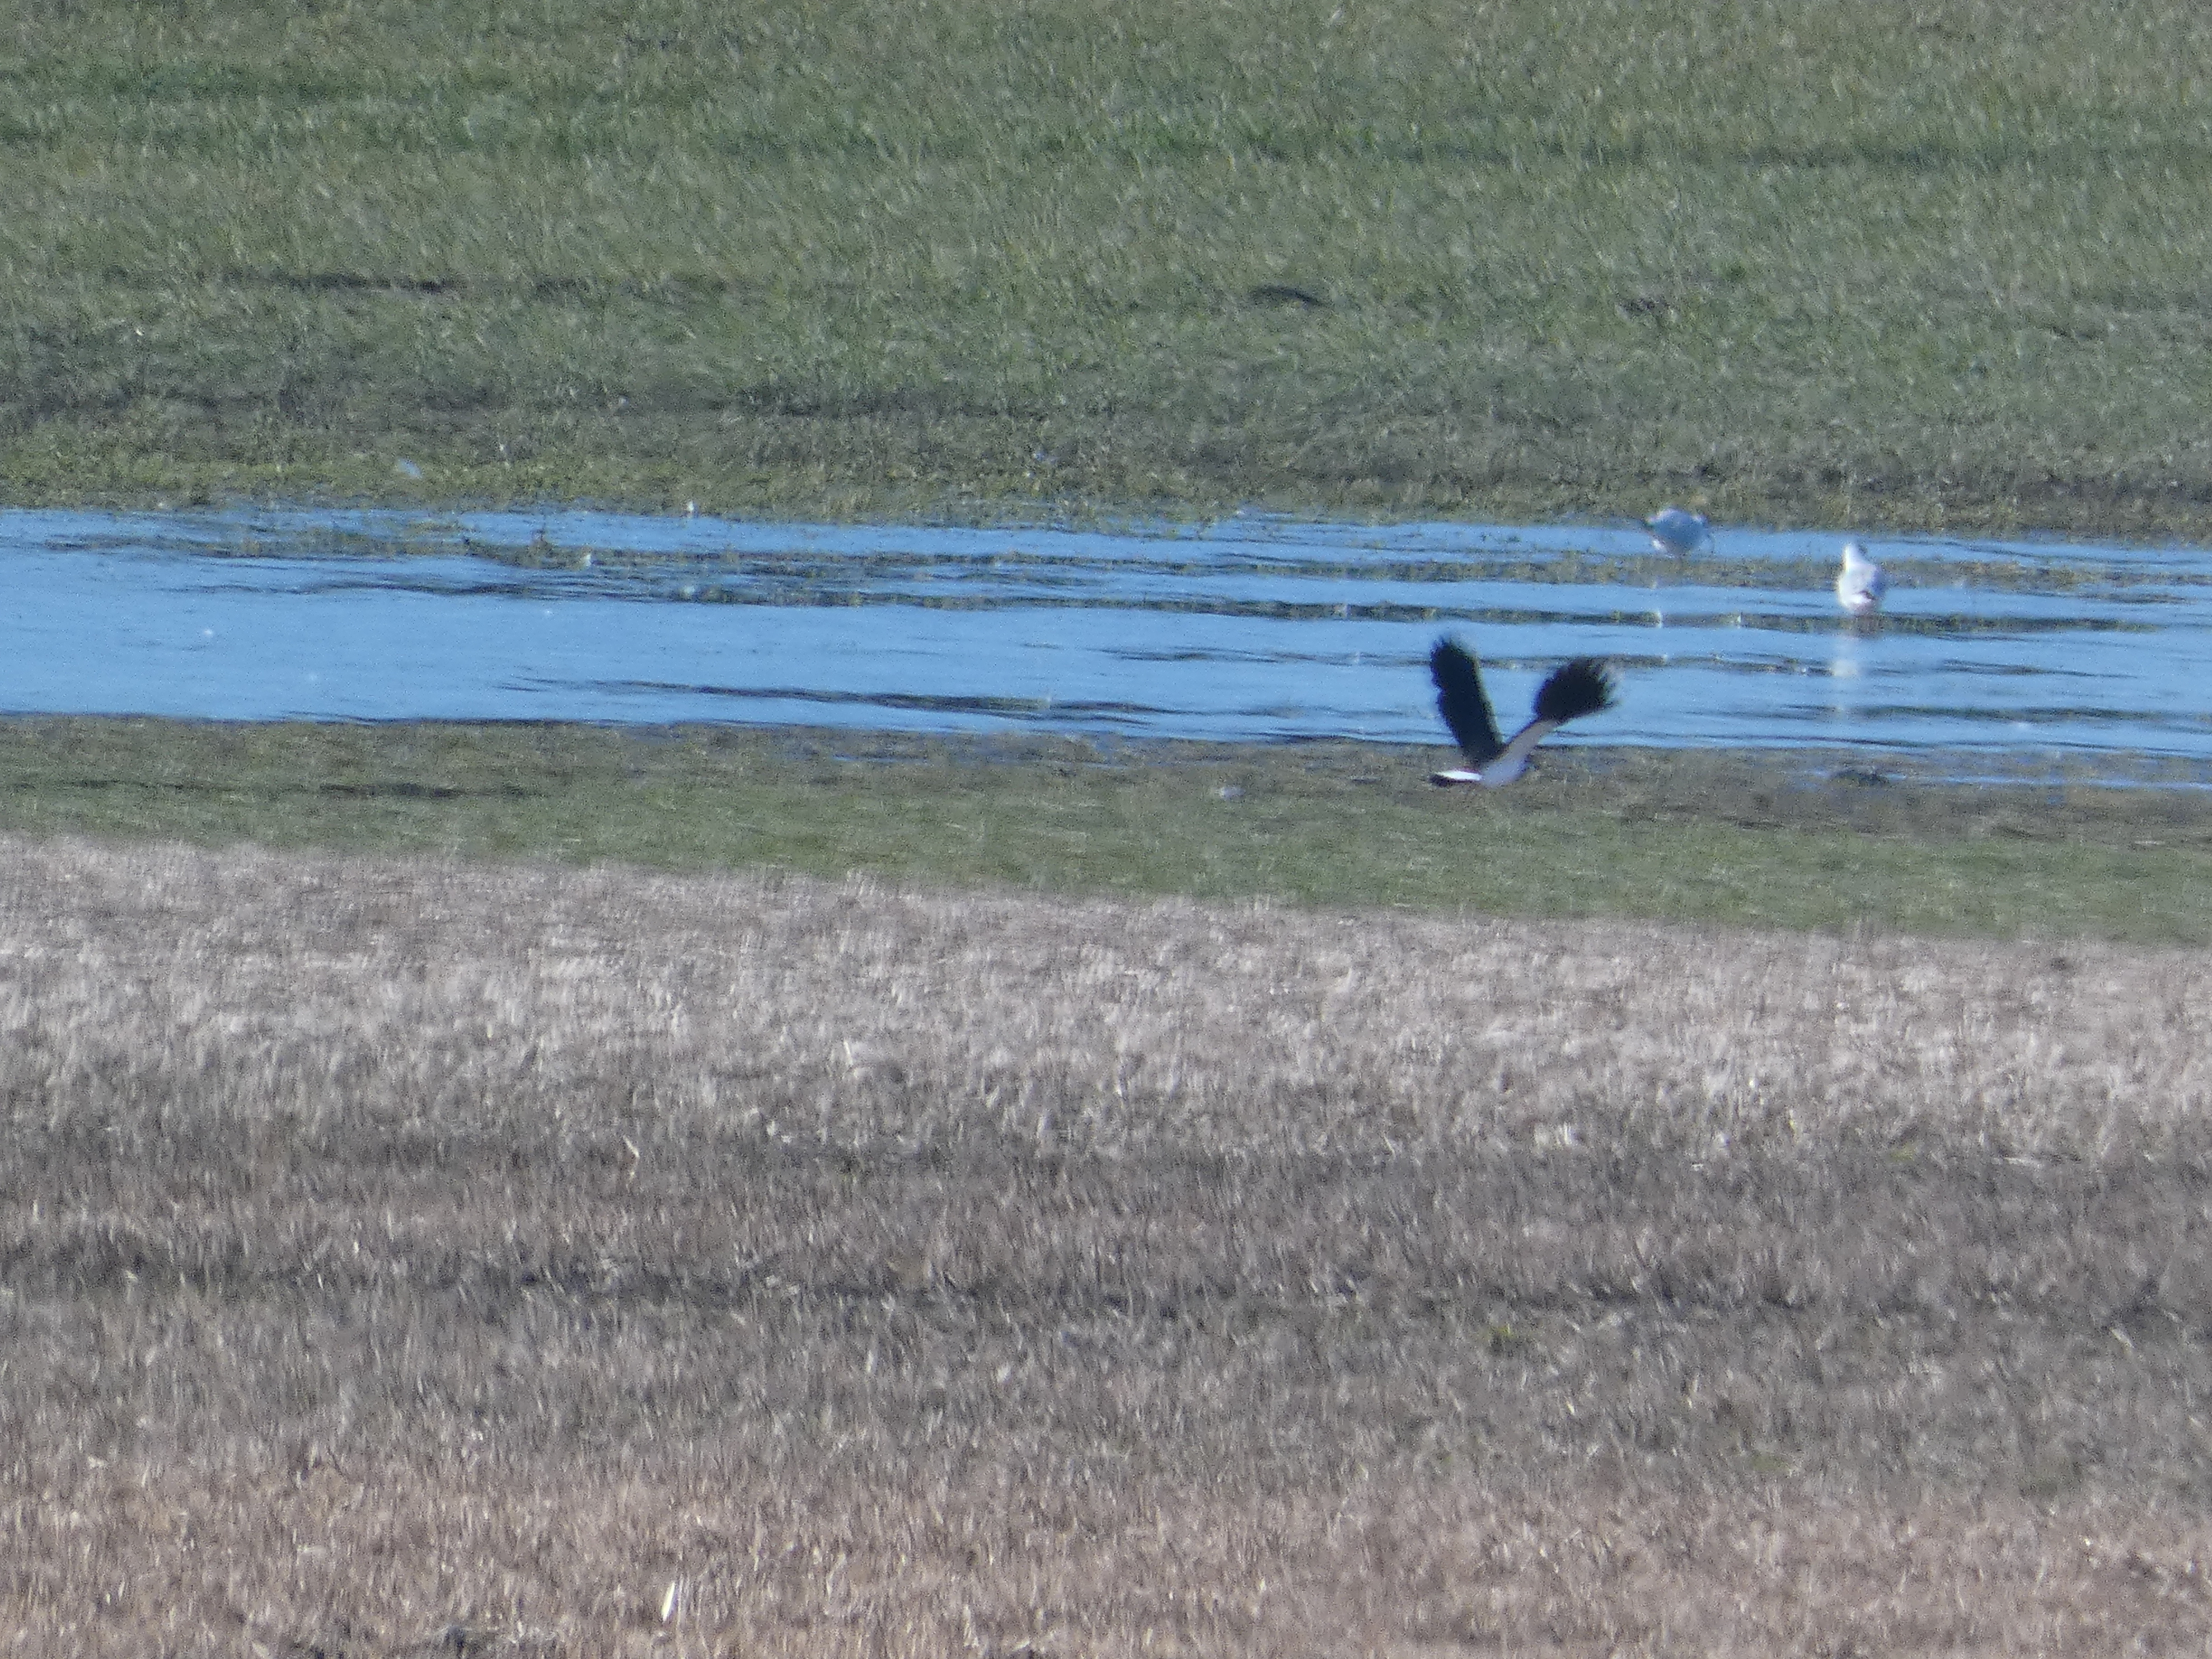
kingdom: Animalia
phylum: Chordata
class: Aves
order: Charadriiformes
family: Charadriidae
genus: Vanellus
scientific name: Vanellus vanellus
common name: Vibe
